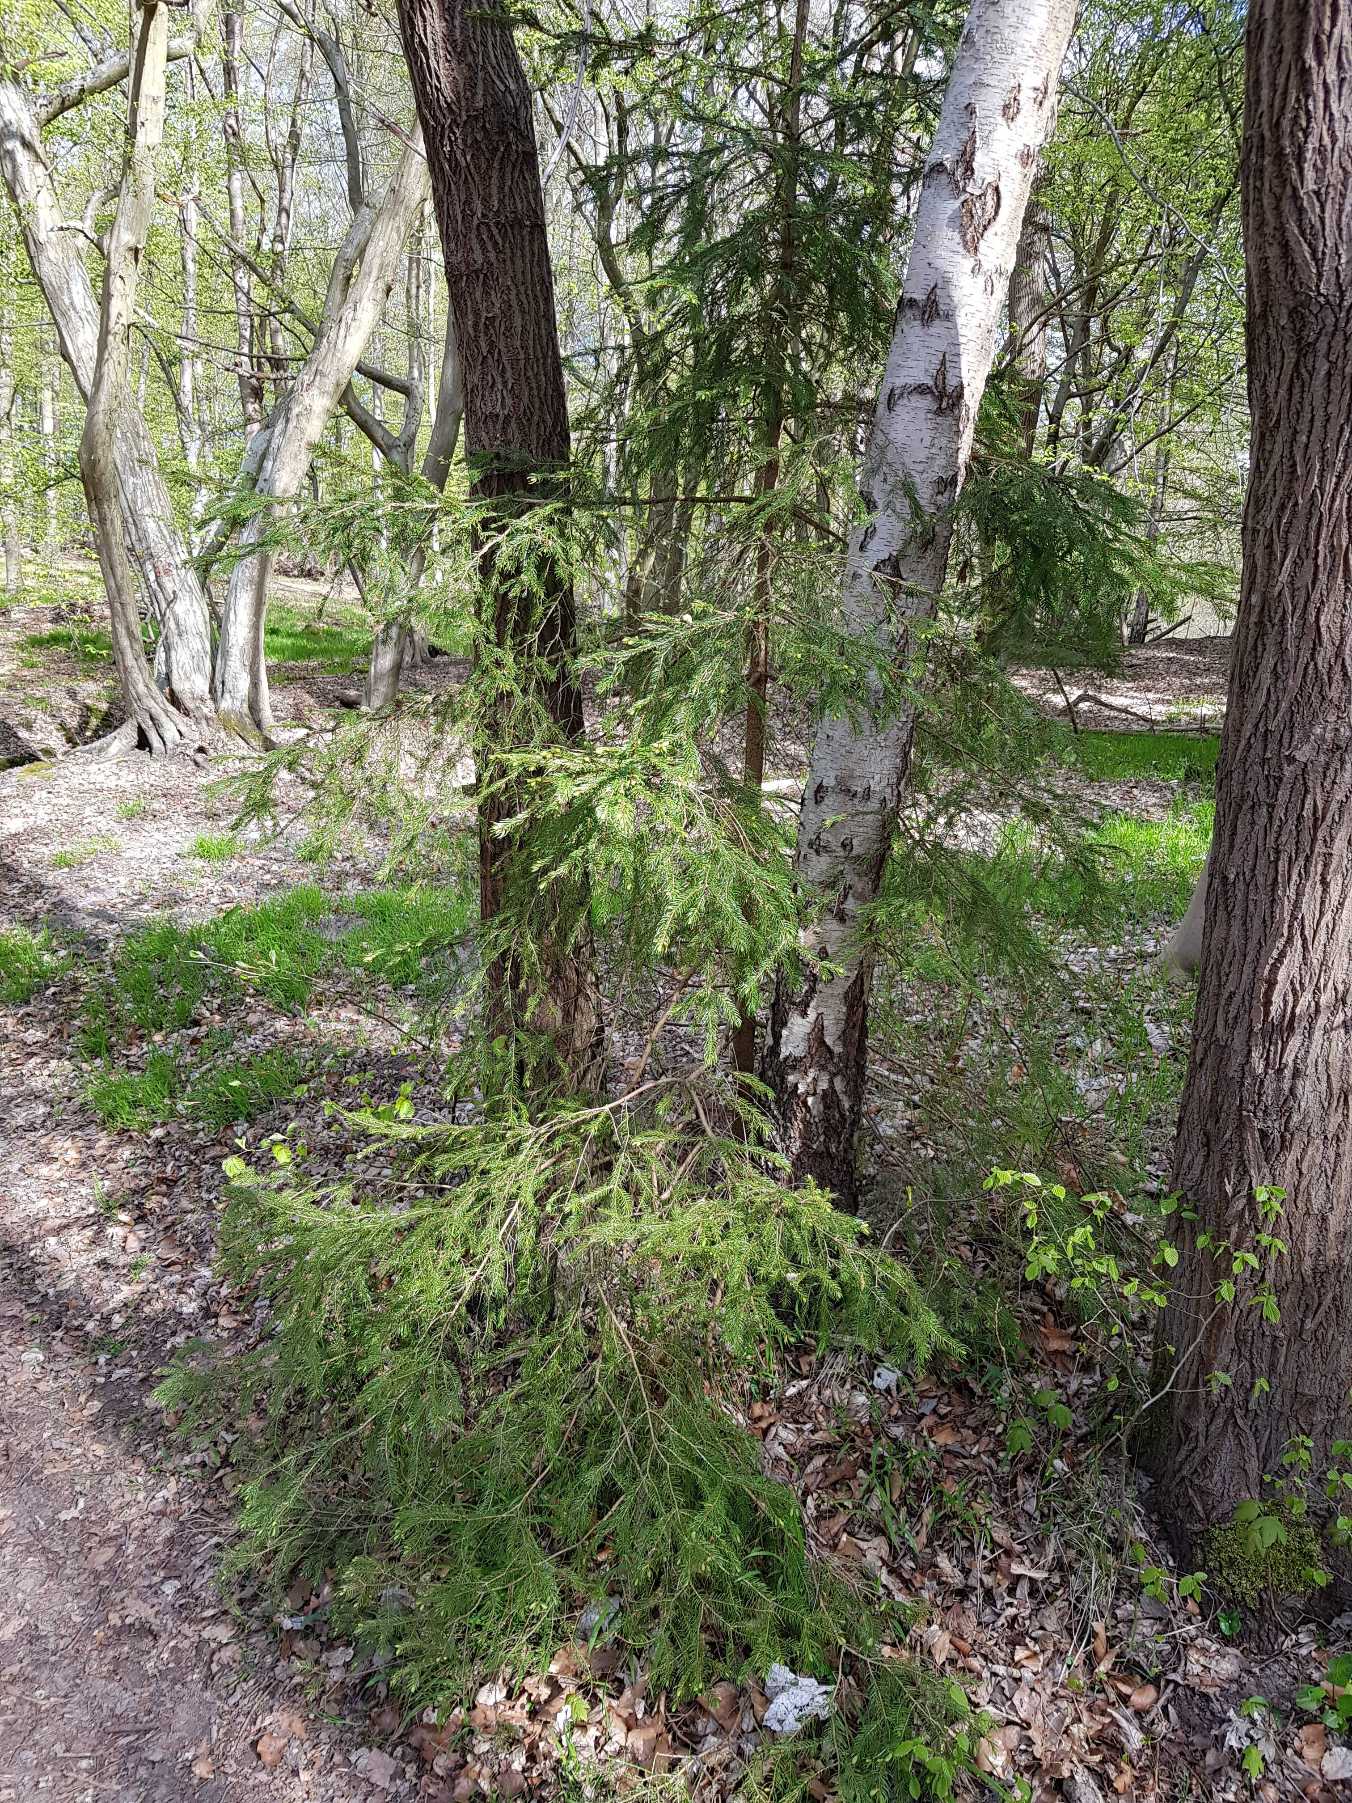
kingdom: Plantae
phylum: Tracheophyta
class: Pinopsida
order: Pinales
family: Pinaceae
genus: Picea
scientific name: Picea abies
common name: Rød-gran
